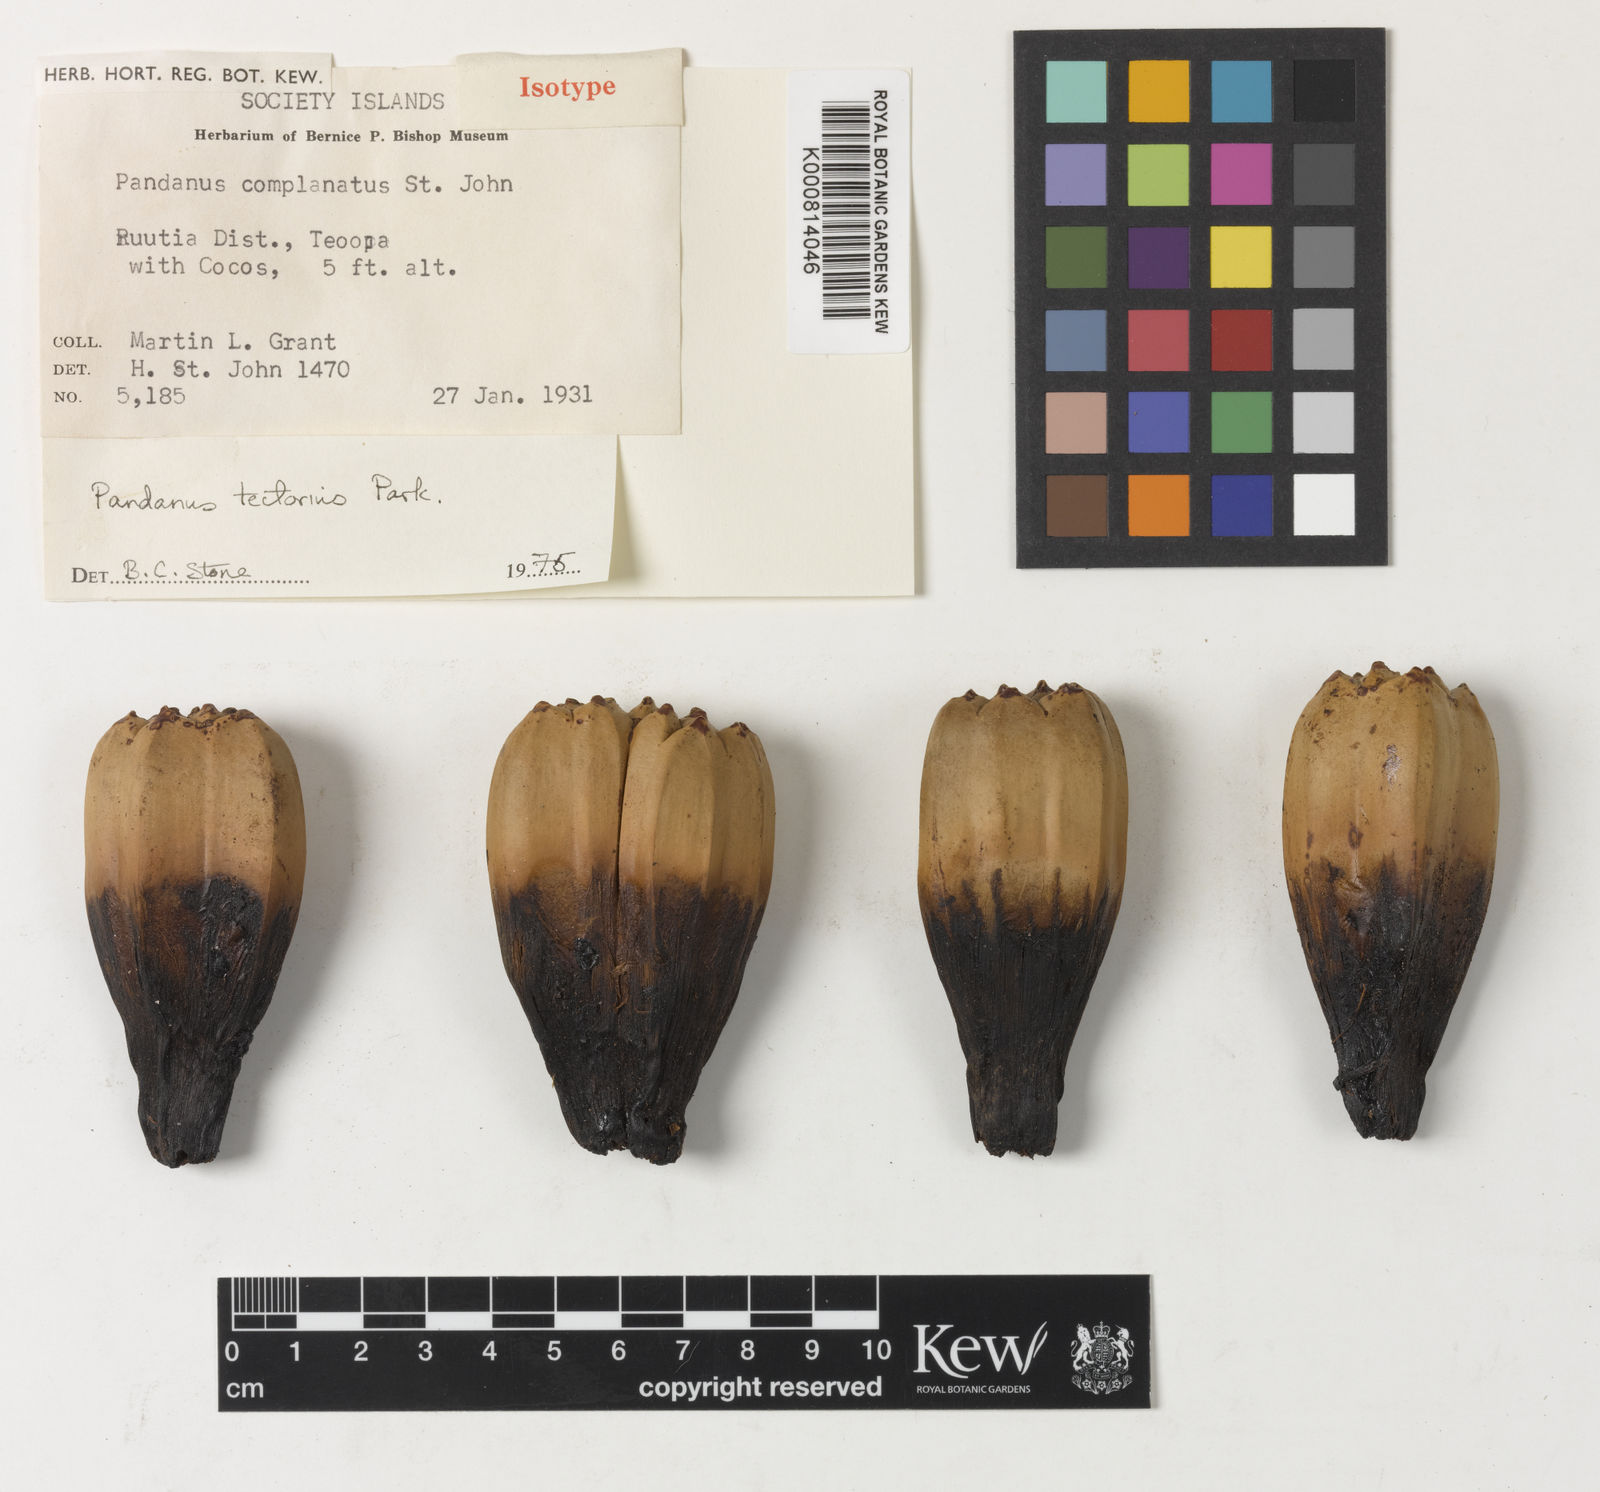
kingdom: Plantae
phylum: Tracheophyta
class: Liliopsida
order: Pandanales
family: Pandanaceae
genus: Pandanus
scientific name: Pandanus
